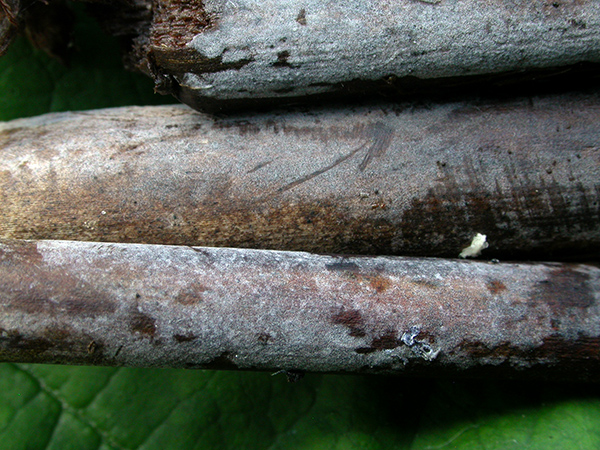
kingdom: Fungi
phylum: Basidiomycota
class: Agaricomycetes
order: Cantharellales
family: Ceratobasidiaceae
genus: Rhizoctonia
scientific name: Rhizoctonia solani
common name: almindelig repeterhinde
